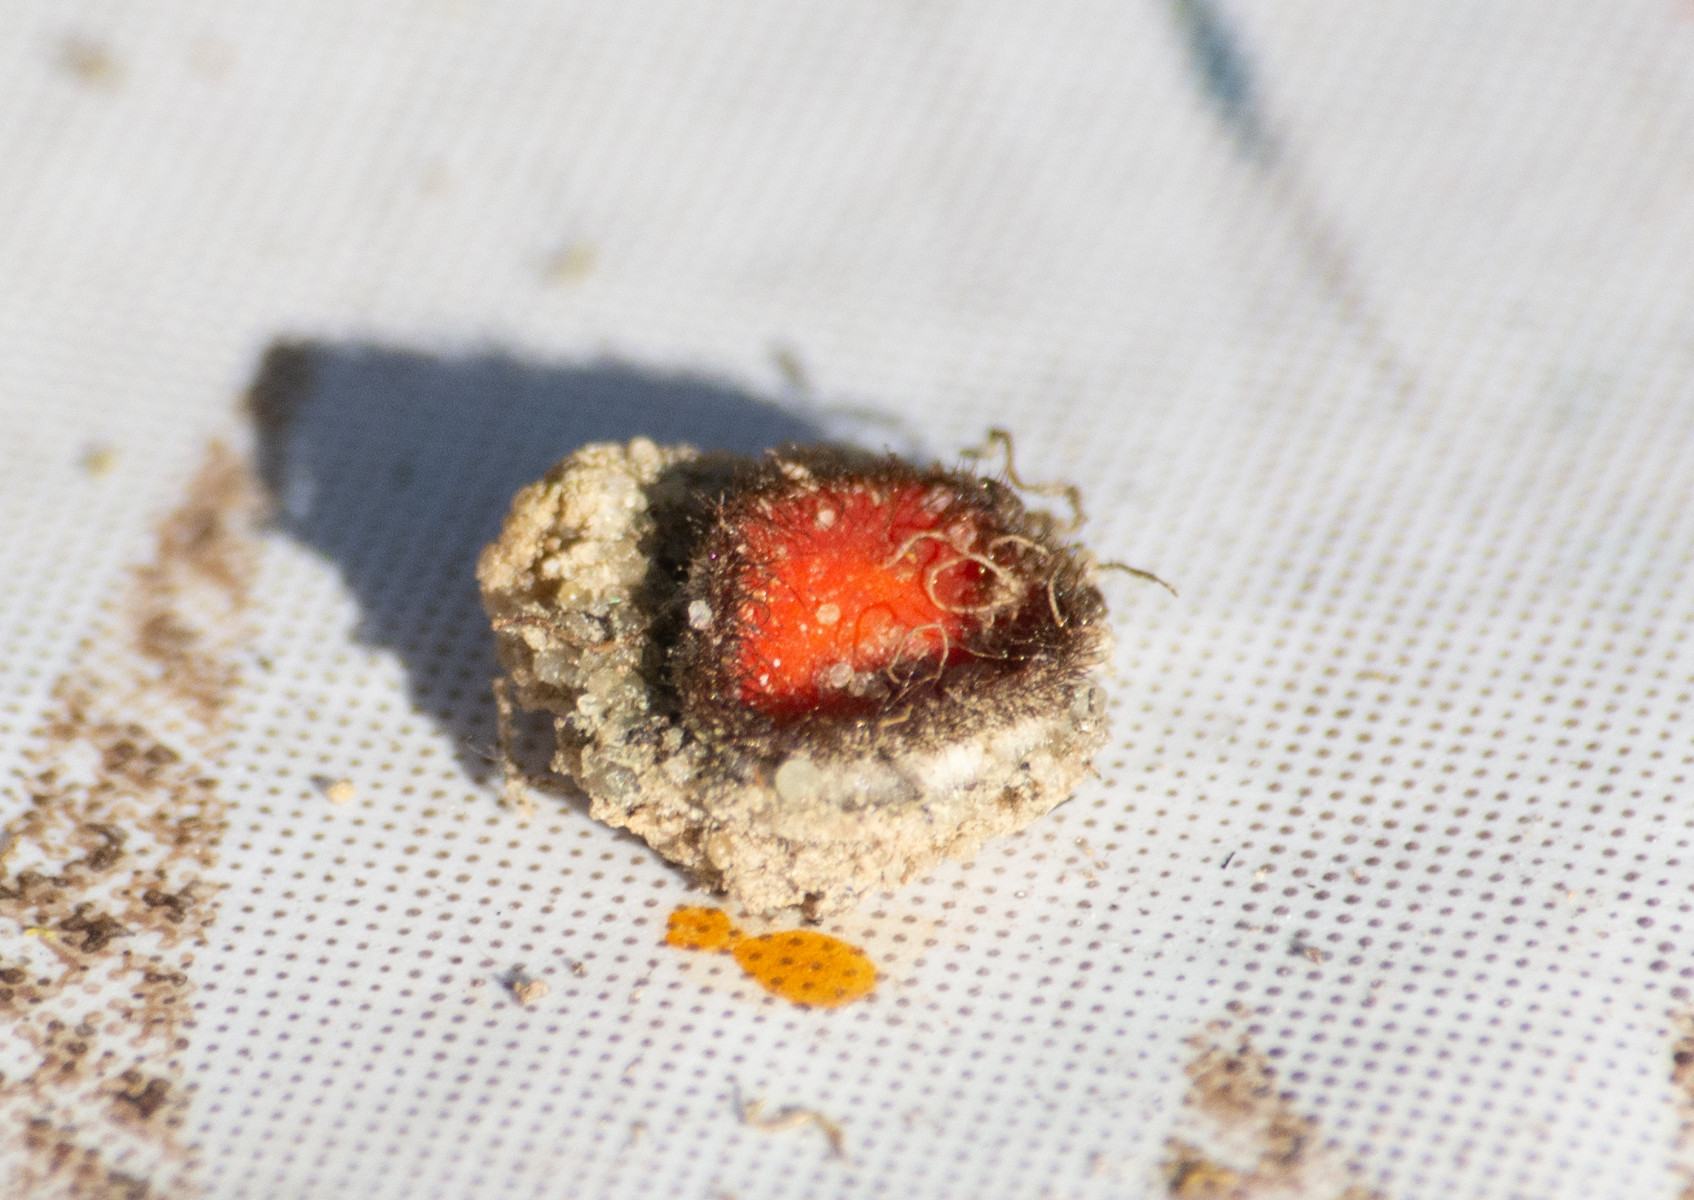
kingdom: Fungi
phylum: Ascomycota
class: Pezizomycetes
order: Pezizales
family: Pyronemataceae
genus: Scutellinia
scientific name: Scutellinia
